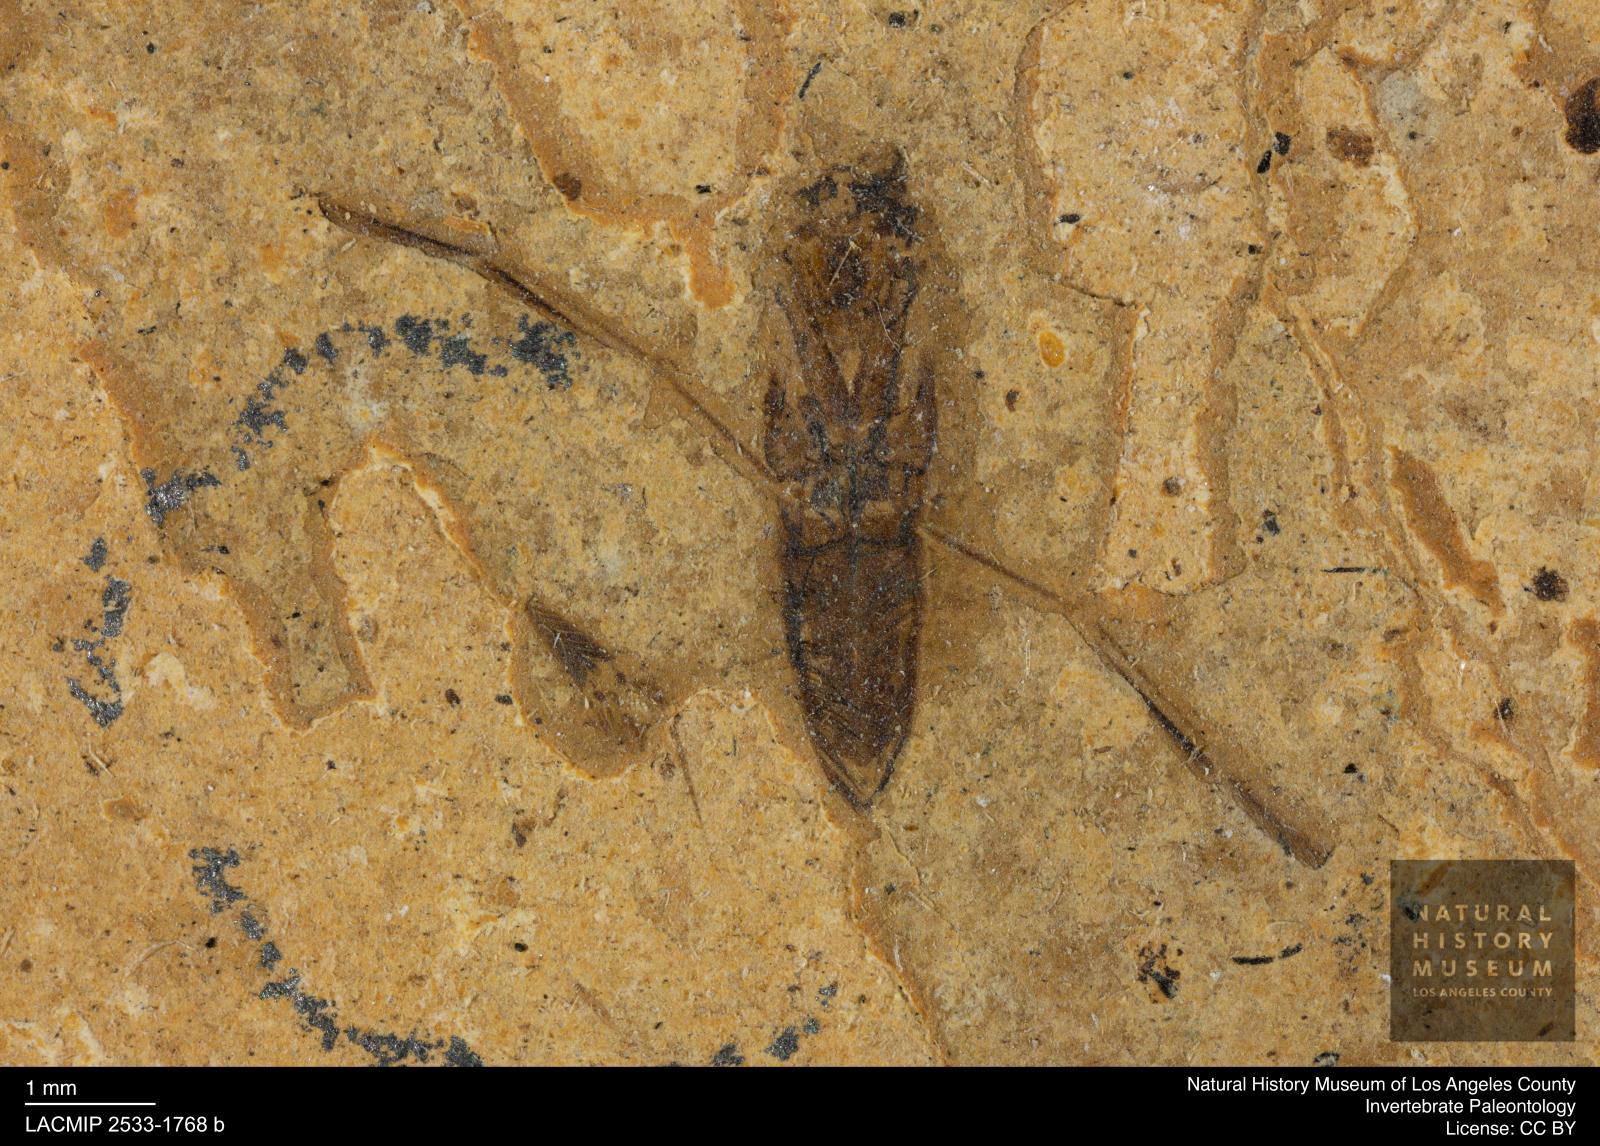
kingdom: Animalia
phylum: Arthropoda
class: Insecta
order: Hemiptera
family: Notonectidae
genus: Notonecta
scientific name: Notonecta
